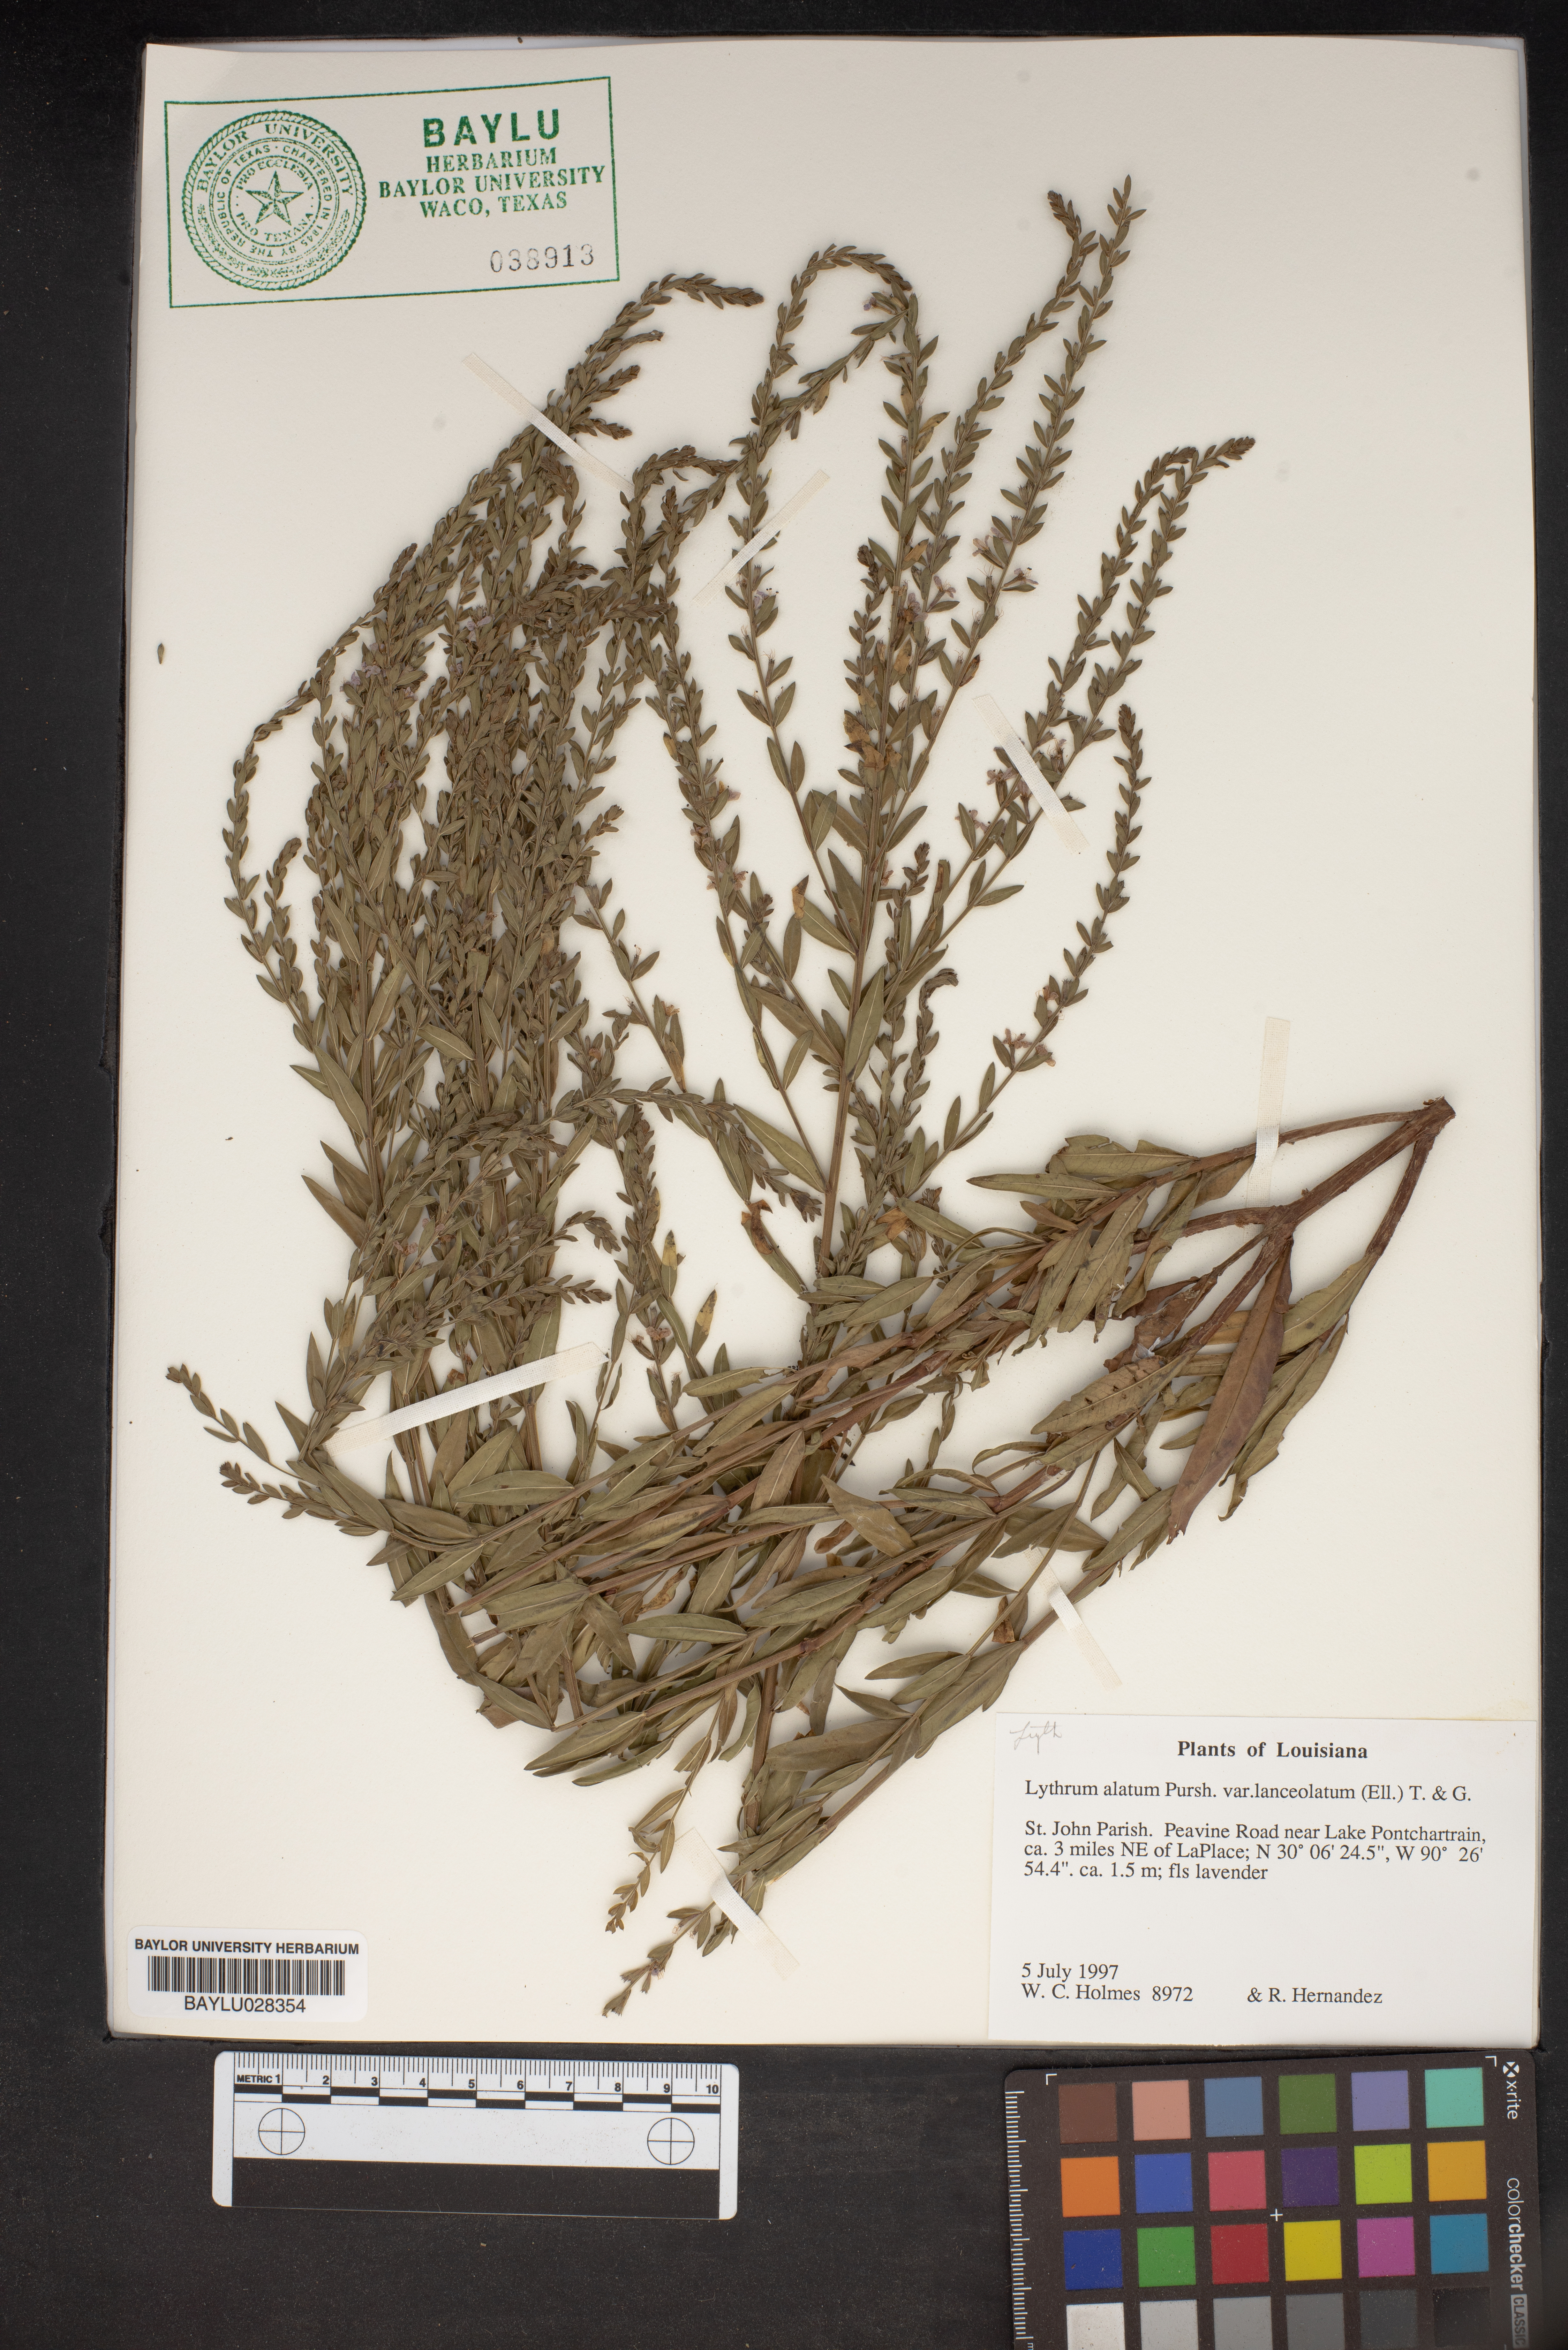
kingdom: Plantae
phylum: Tracheophyta
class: Magnoliopsida
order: Myrtales
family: Lythraceae
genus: Lythrum
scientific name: Lythrum alatum
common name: Winged loosestrife
